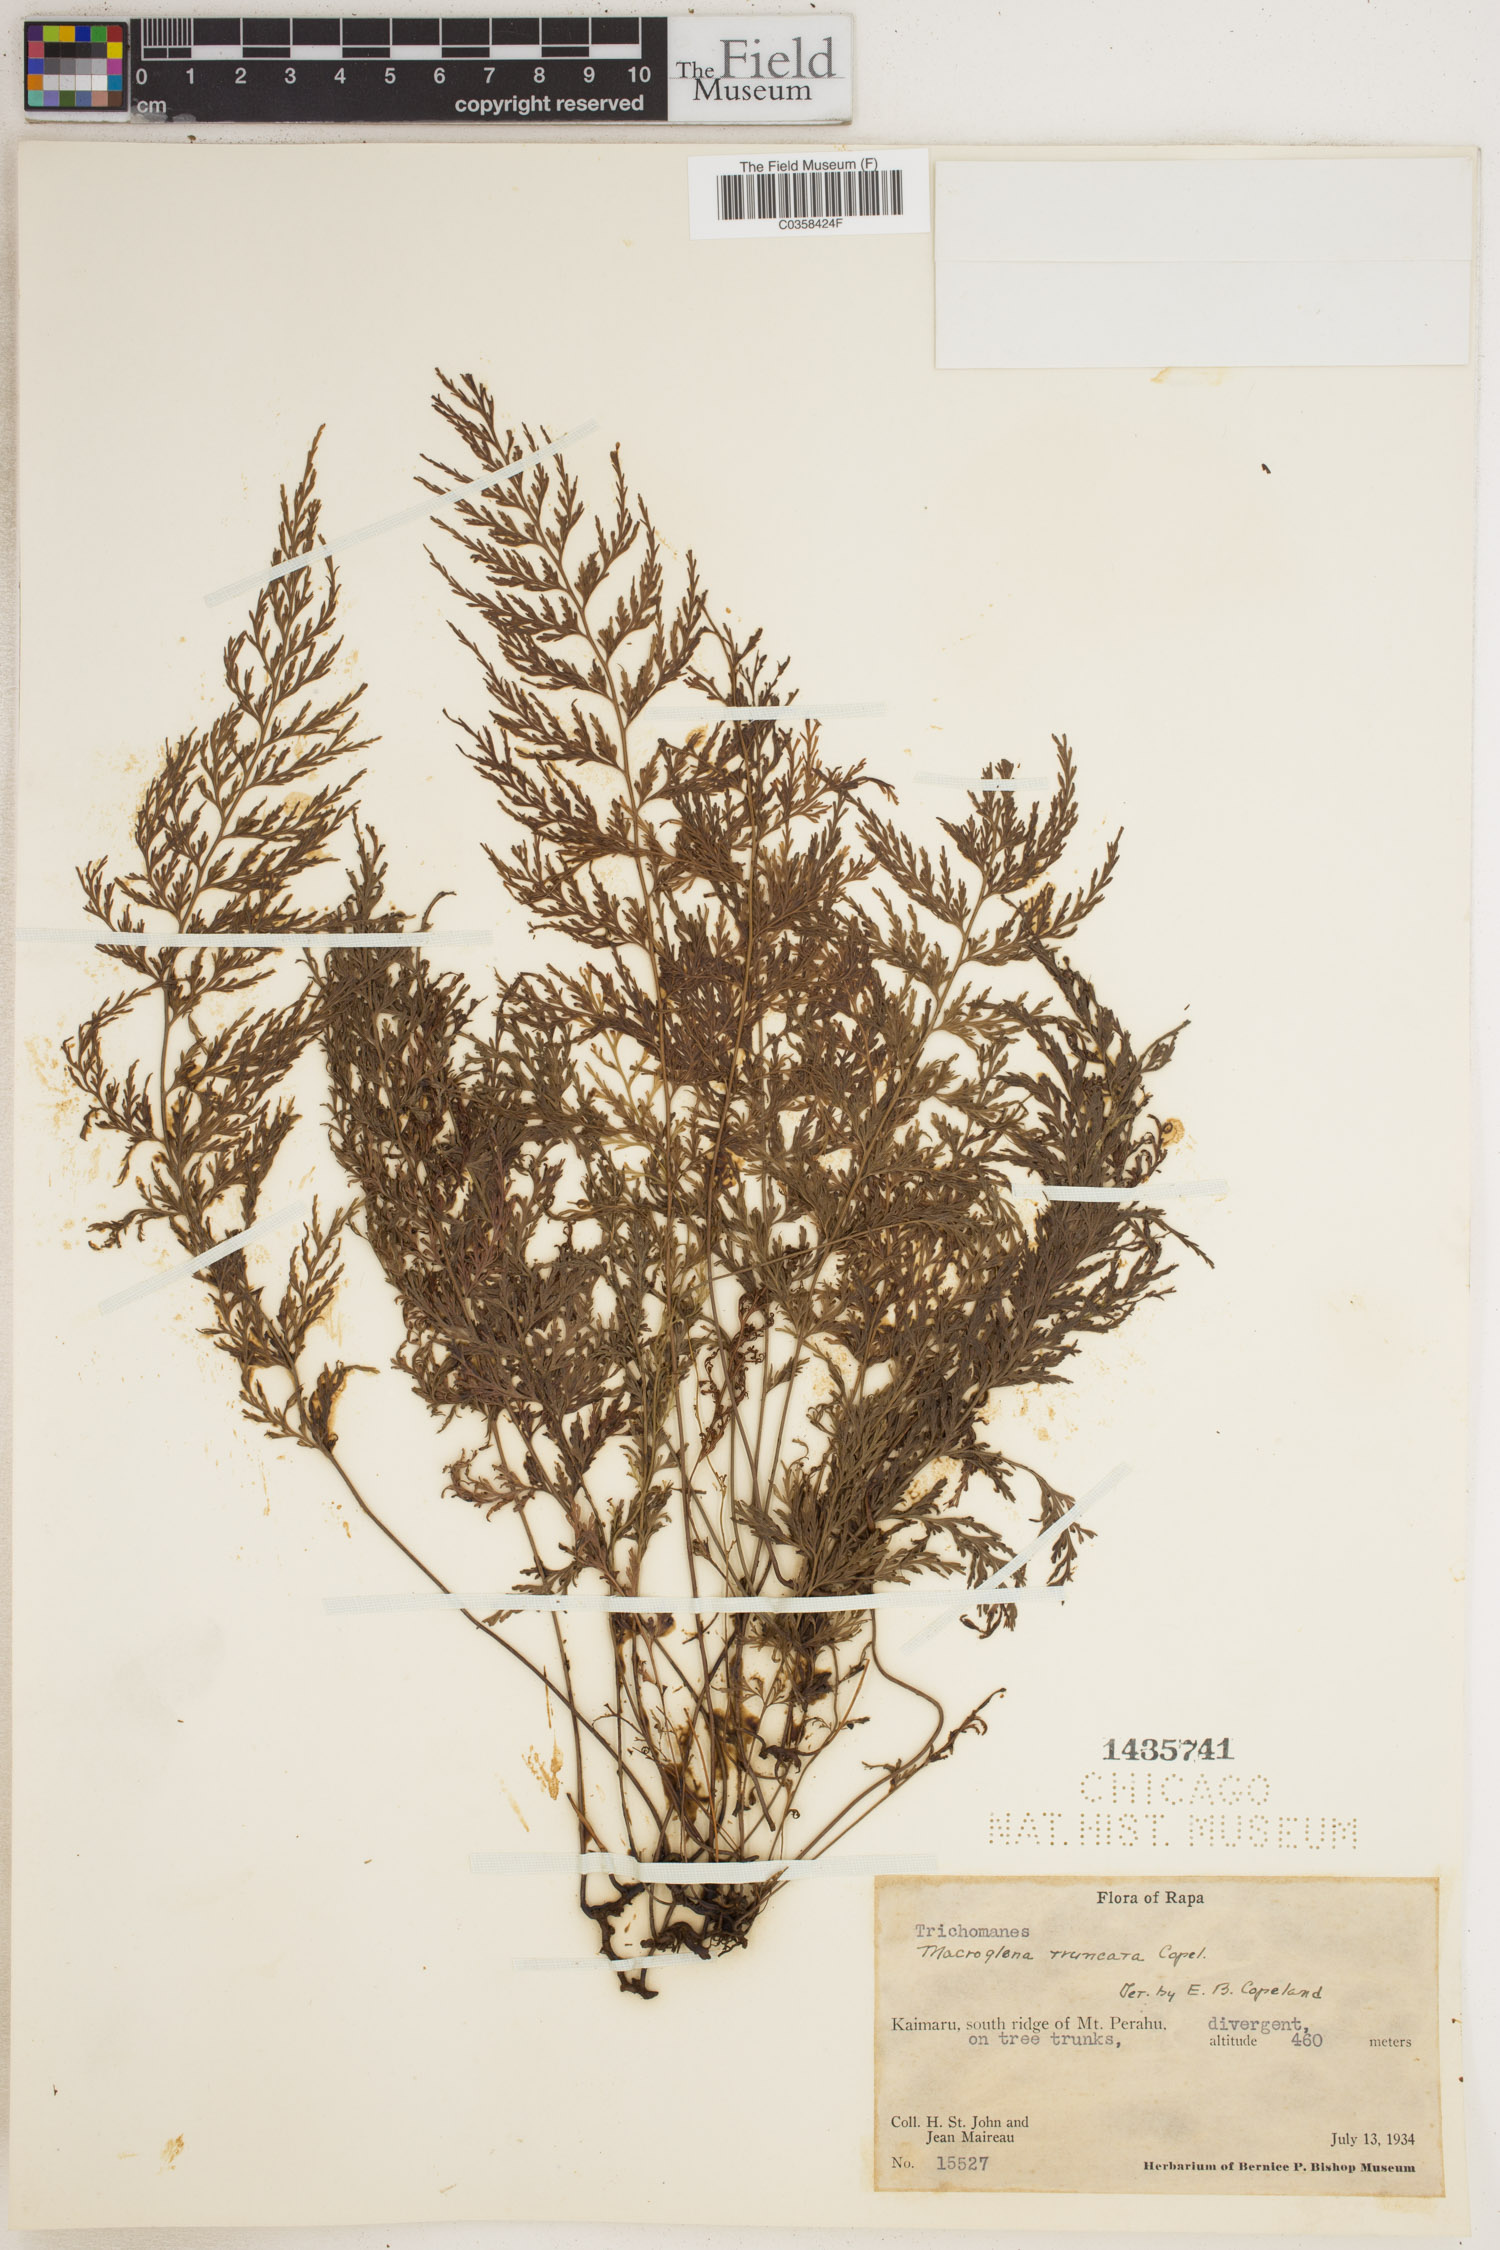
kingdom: Plantae
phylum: Tracheophyta
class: Polypodiopsida
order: Hymenophyllales
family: Hymenophyllaceae
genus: Abrodictyum
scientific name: Abrodictyum truncatum
